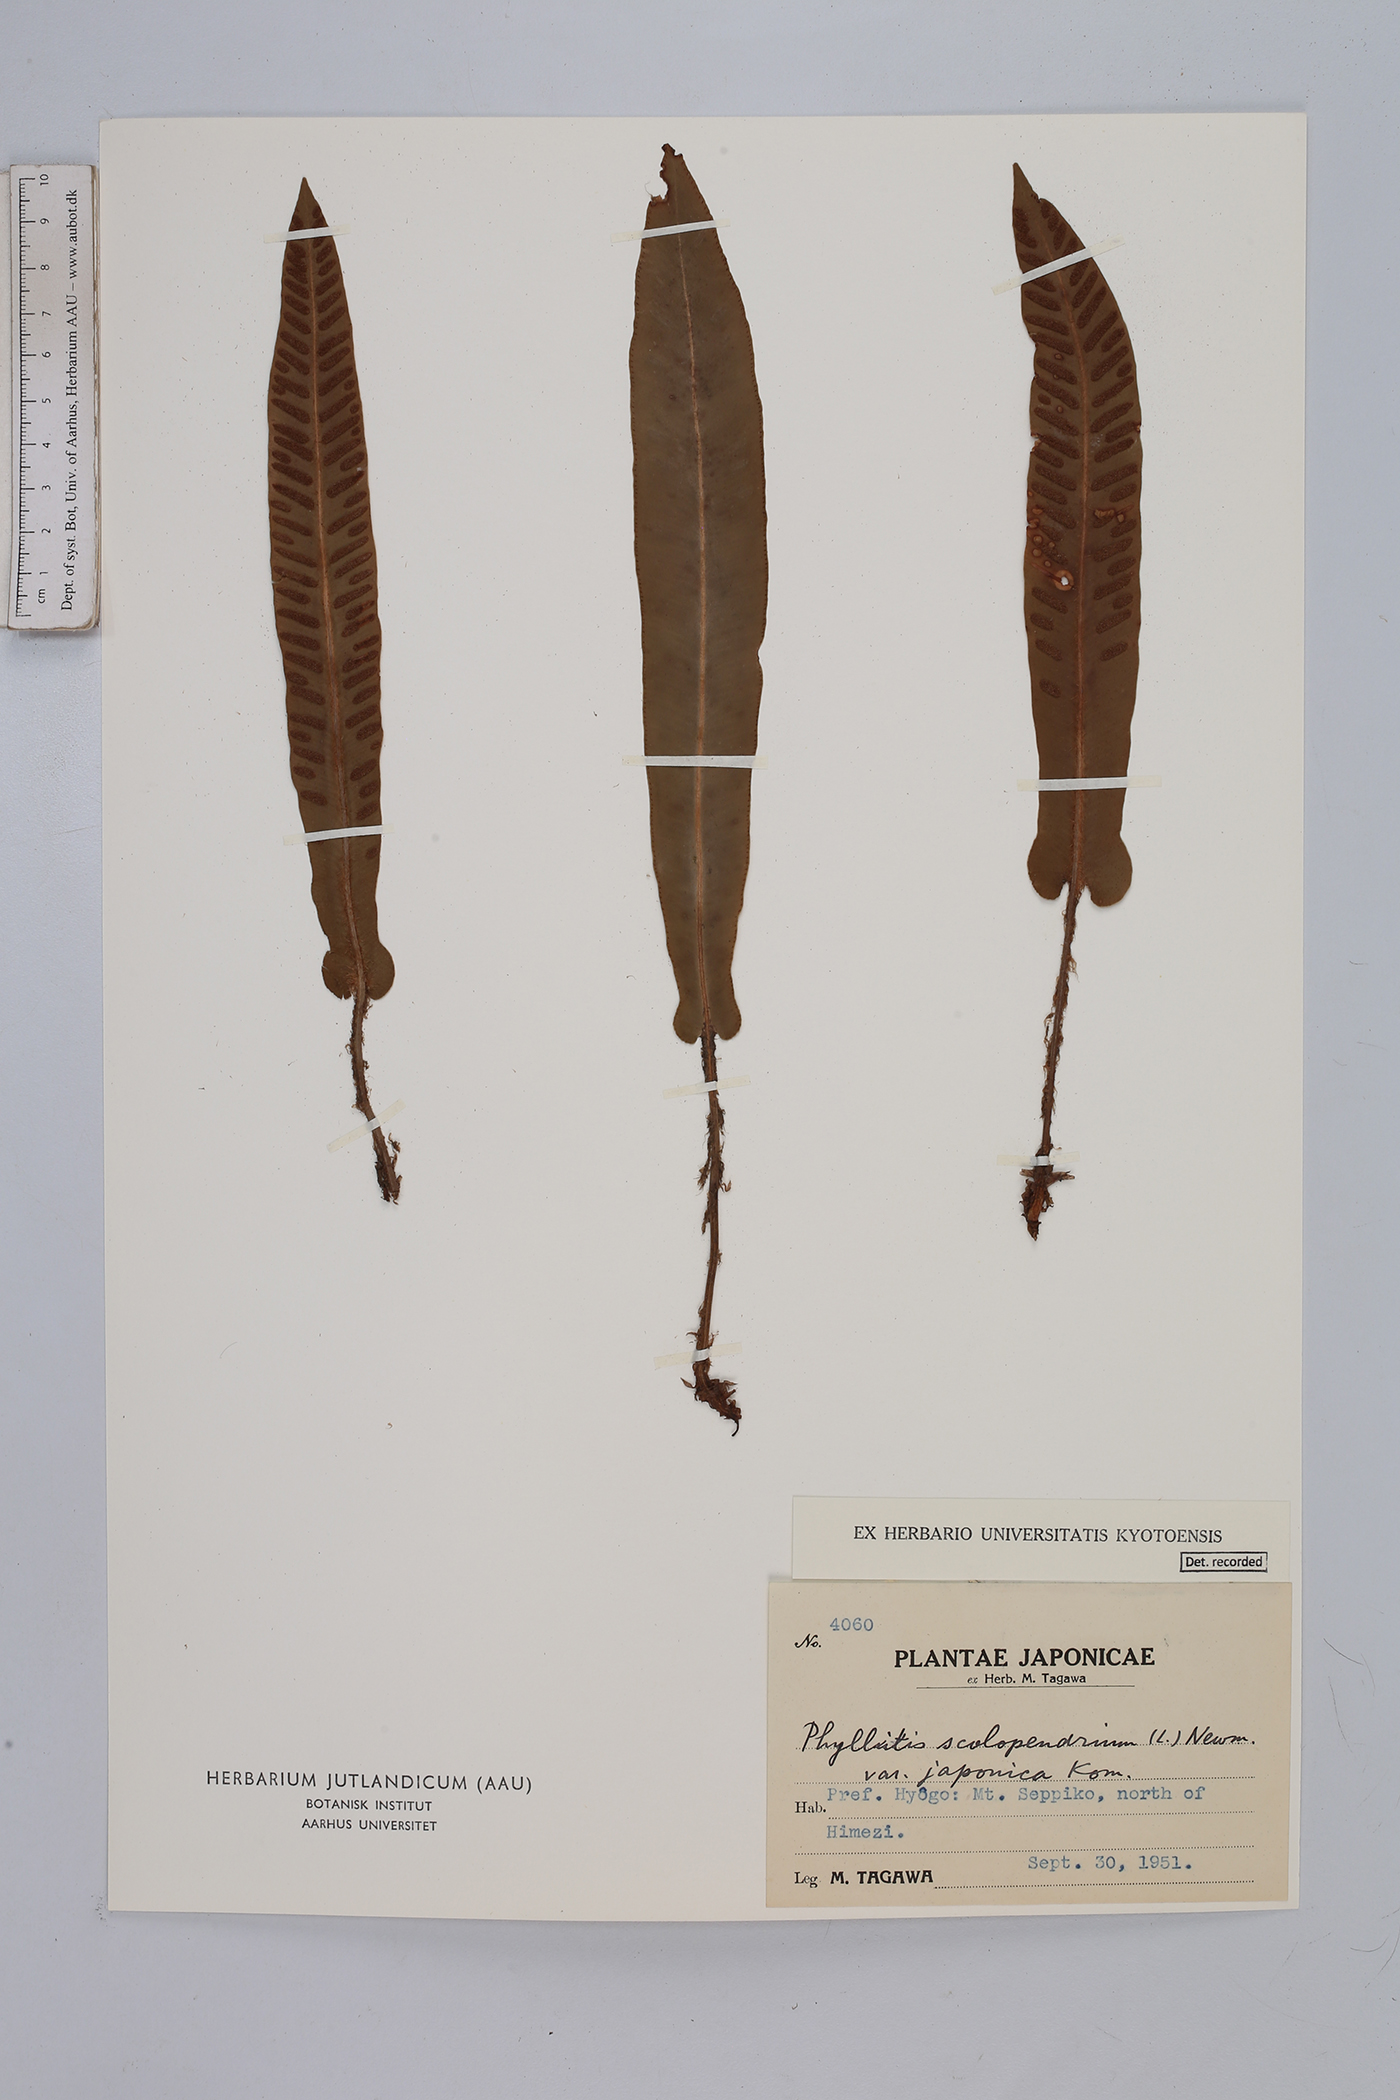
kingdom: Plantae
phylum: Tracheophyta
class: Polypodiopsida
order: Polypodiales
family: Aspleniaceae
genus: Asplenium
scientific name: Asplenium scolopendrium
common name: Hart's-tongue fern
